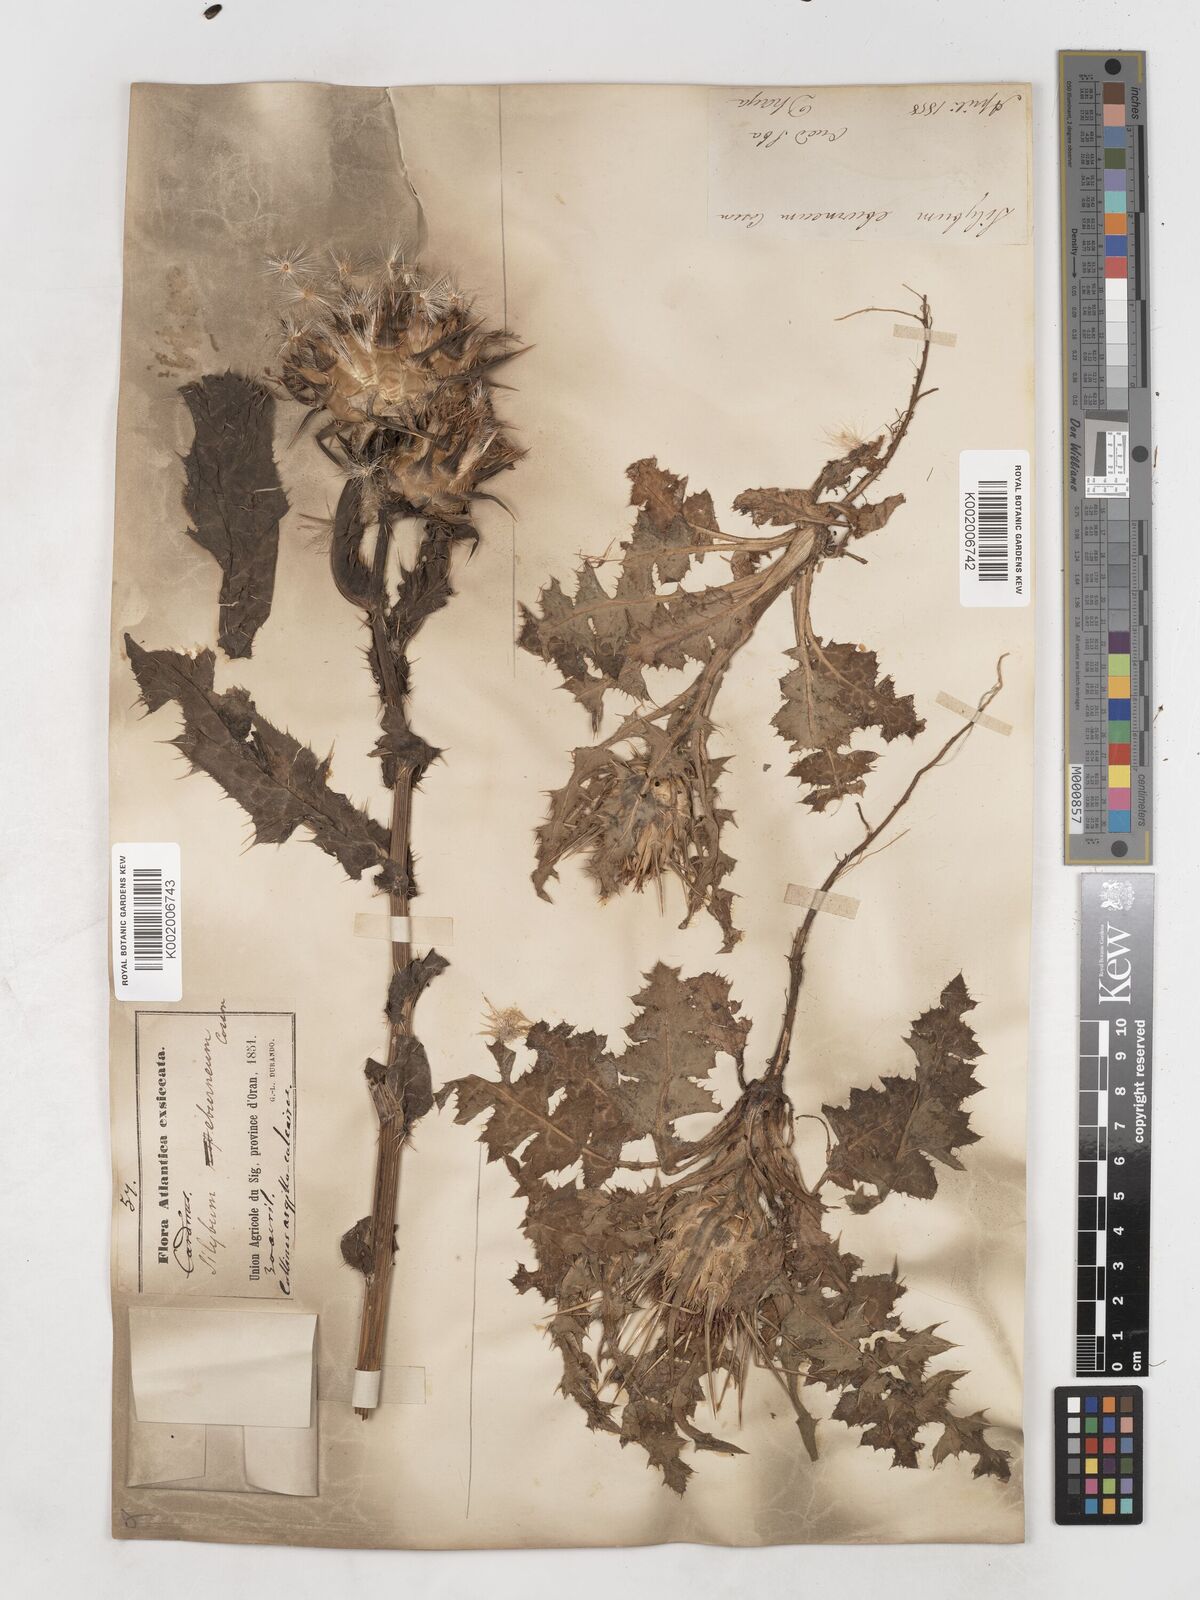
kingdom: Plantae
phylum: Tracheophyta
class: Magnoliopsida
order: Asterales
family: Asteraceae
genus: Silybum
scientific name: Silybum eburneum
